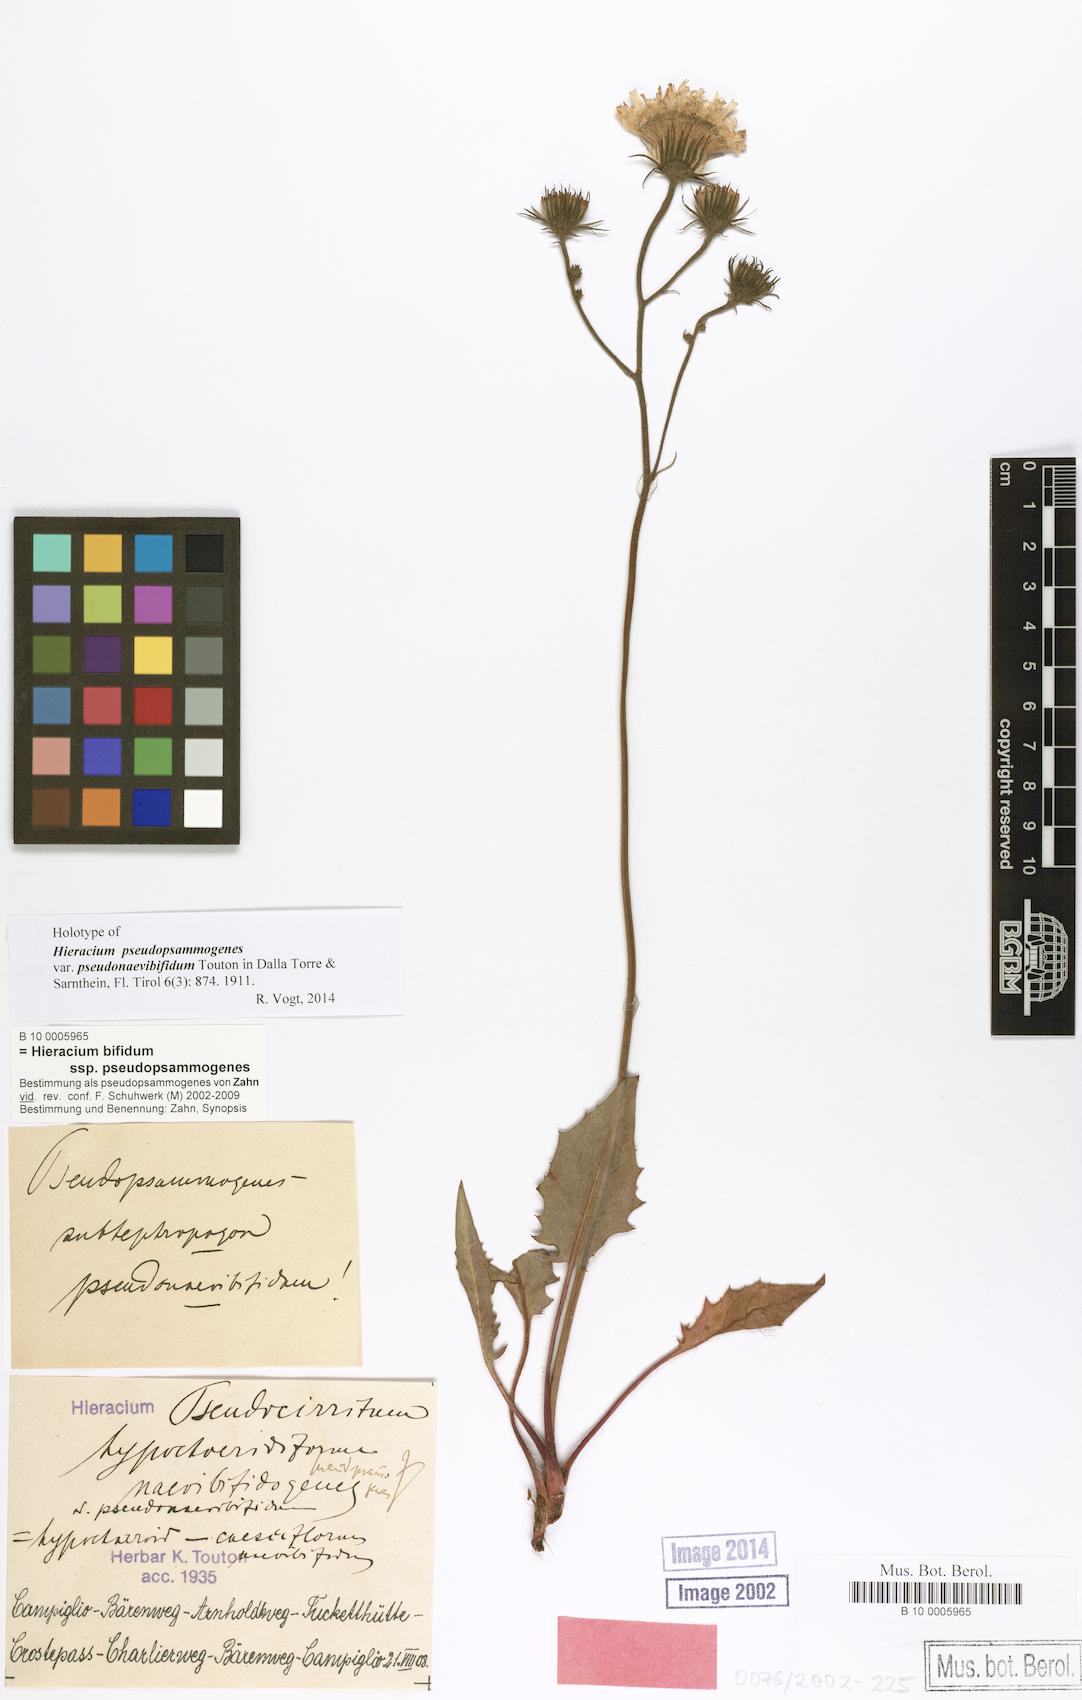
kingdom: Plantae
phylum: Tracheophyta
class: Magnoliopsida
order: Asterales
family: Asteraceae
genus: Hieracium
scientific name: Hieracium bifidum
